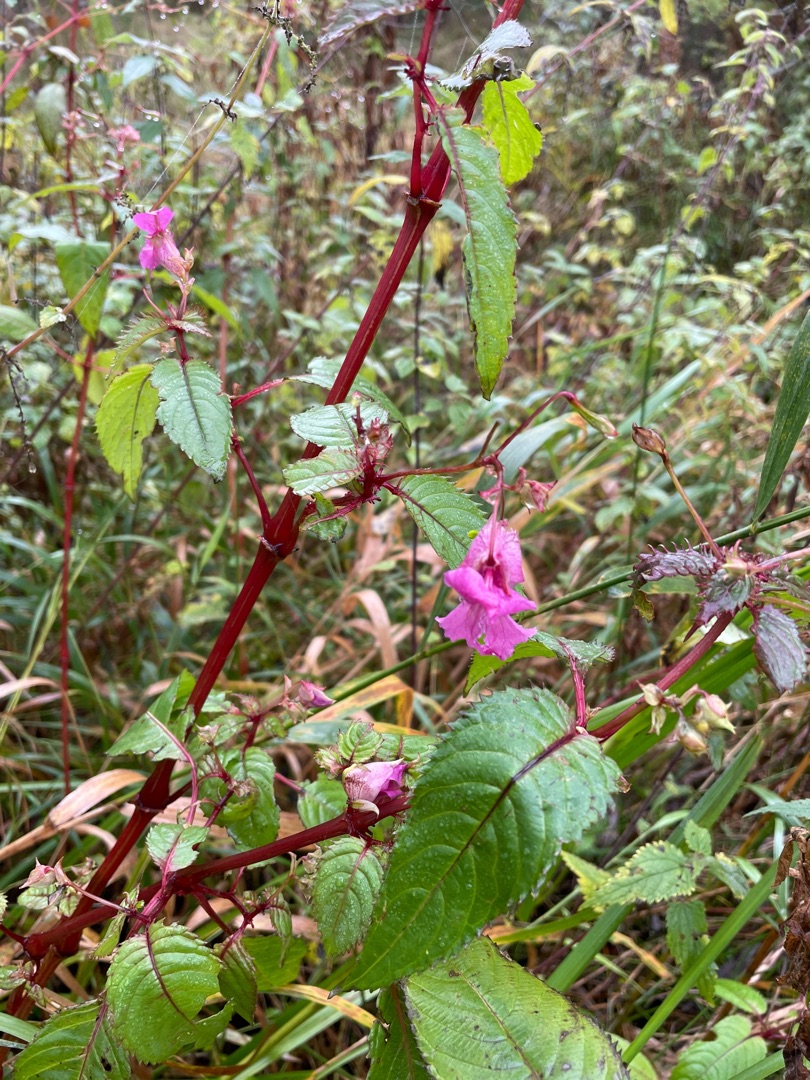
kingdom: Plantae
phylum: Tracheophyta
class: Magnoliopsida
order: Ericales
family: Balsaminaceae
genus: Impatiens
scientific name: Impatiens glandulifera
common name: Kæmpe-balsamin
